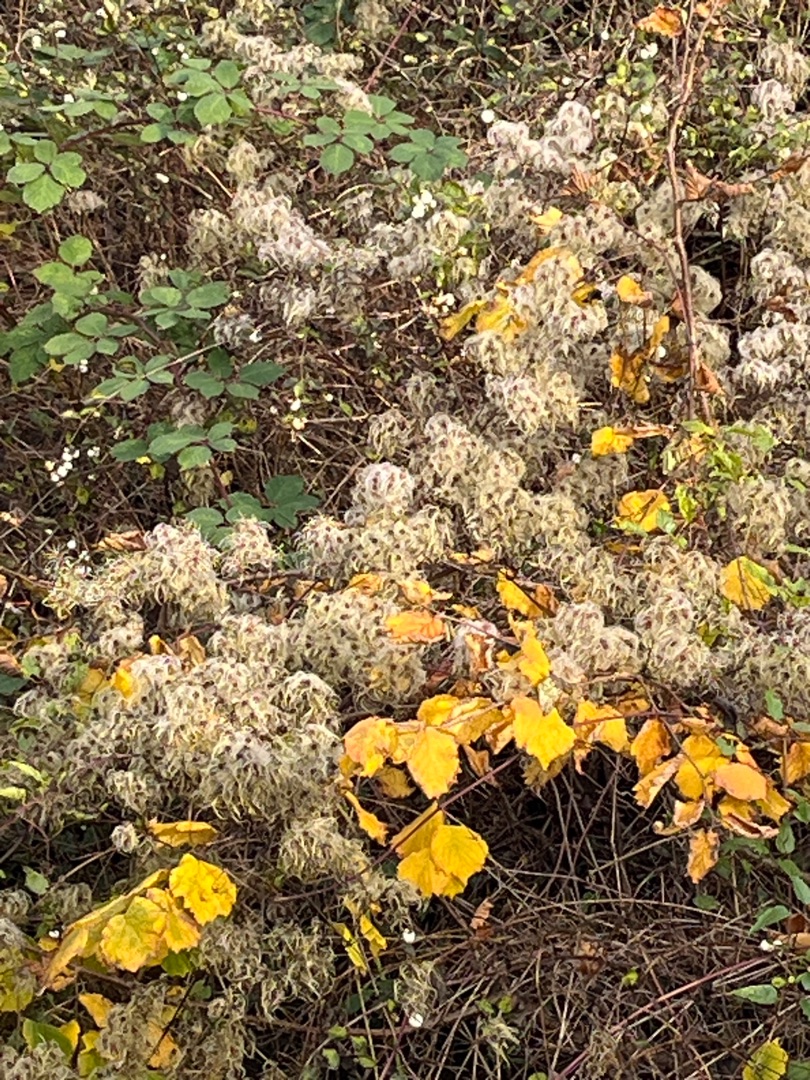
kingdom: Plantae
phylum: Tracheophyta
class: Magnoliopsida
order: Ranunculales
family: Ranunculaceae
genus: Clematis
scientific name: Clematis vitalba
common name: Skovranke
